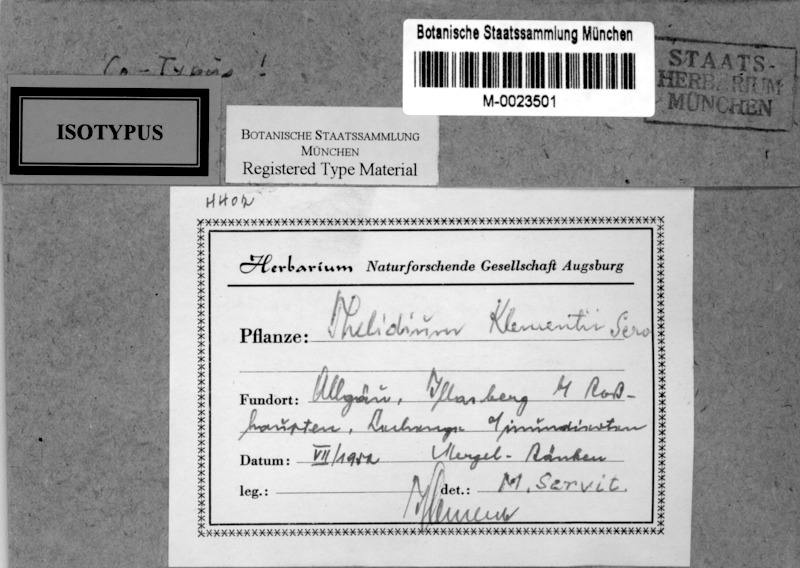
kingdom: Fungi
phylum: Ascomycota
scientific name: Ascomycota
